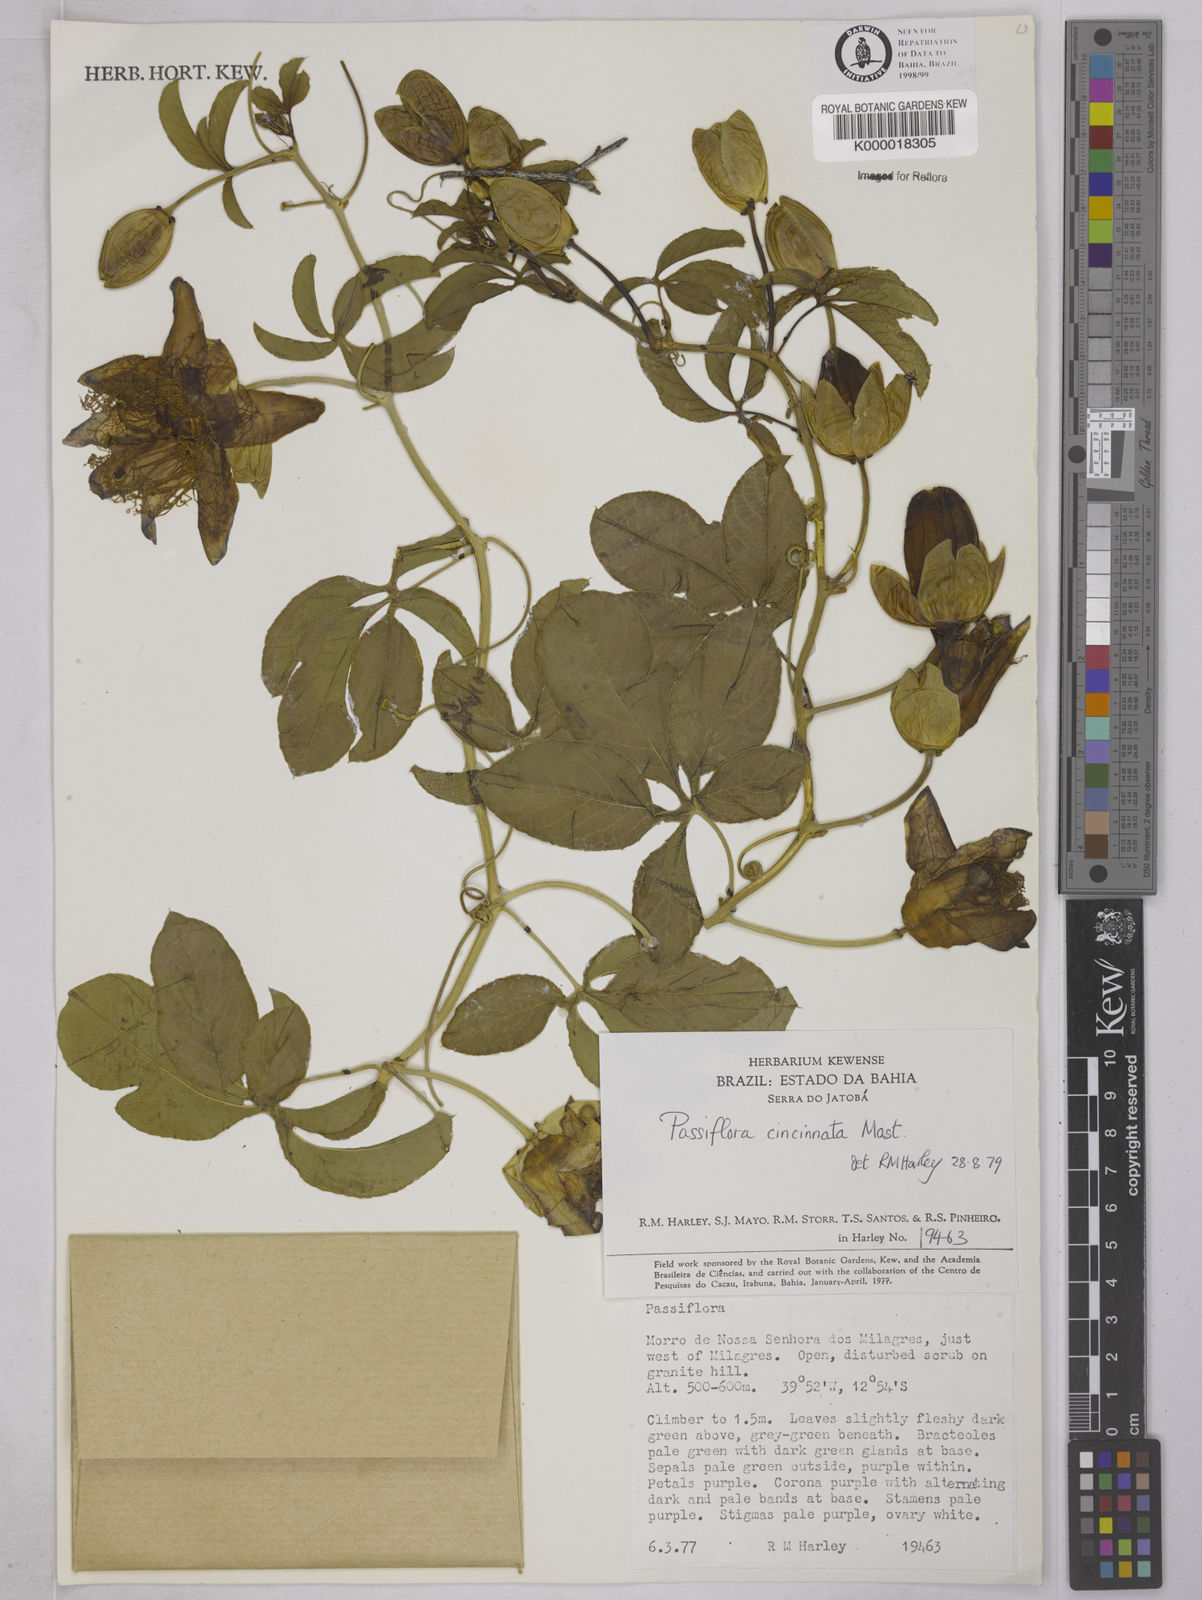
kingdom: Plantae
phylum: Tracheophyta
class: Magnoliopsida
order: Malpighiales
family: Passifloraceae
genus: Passiflora
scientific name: Passiflora cincinnata
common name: Crato passionvine
